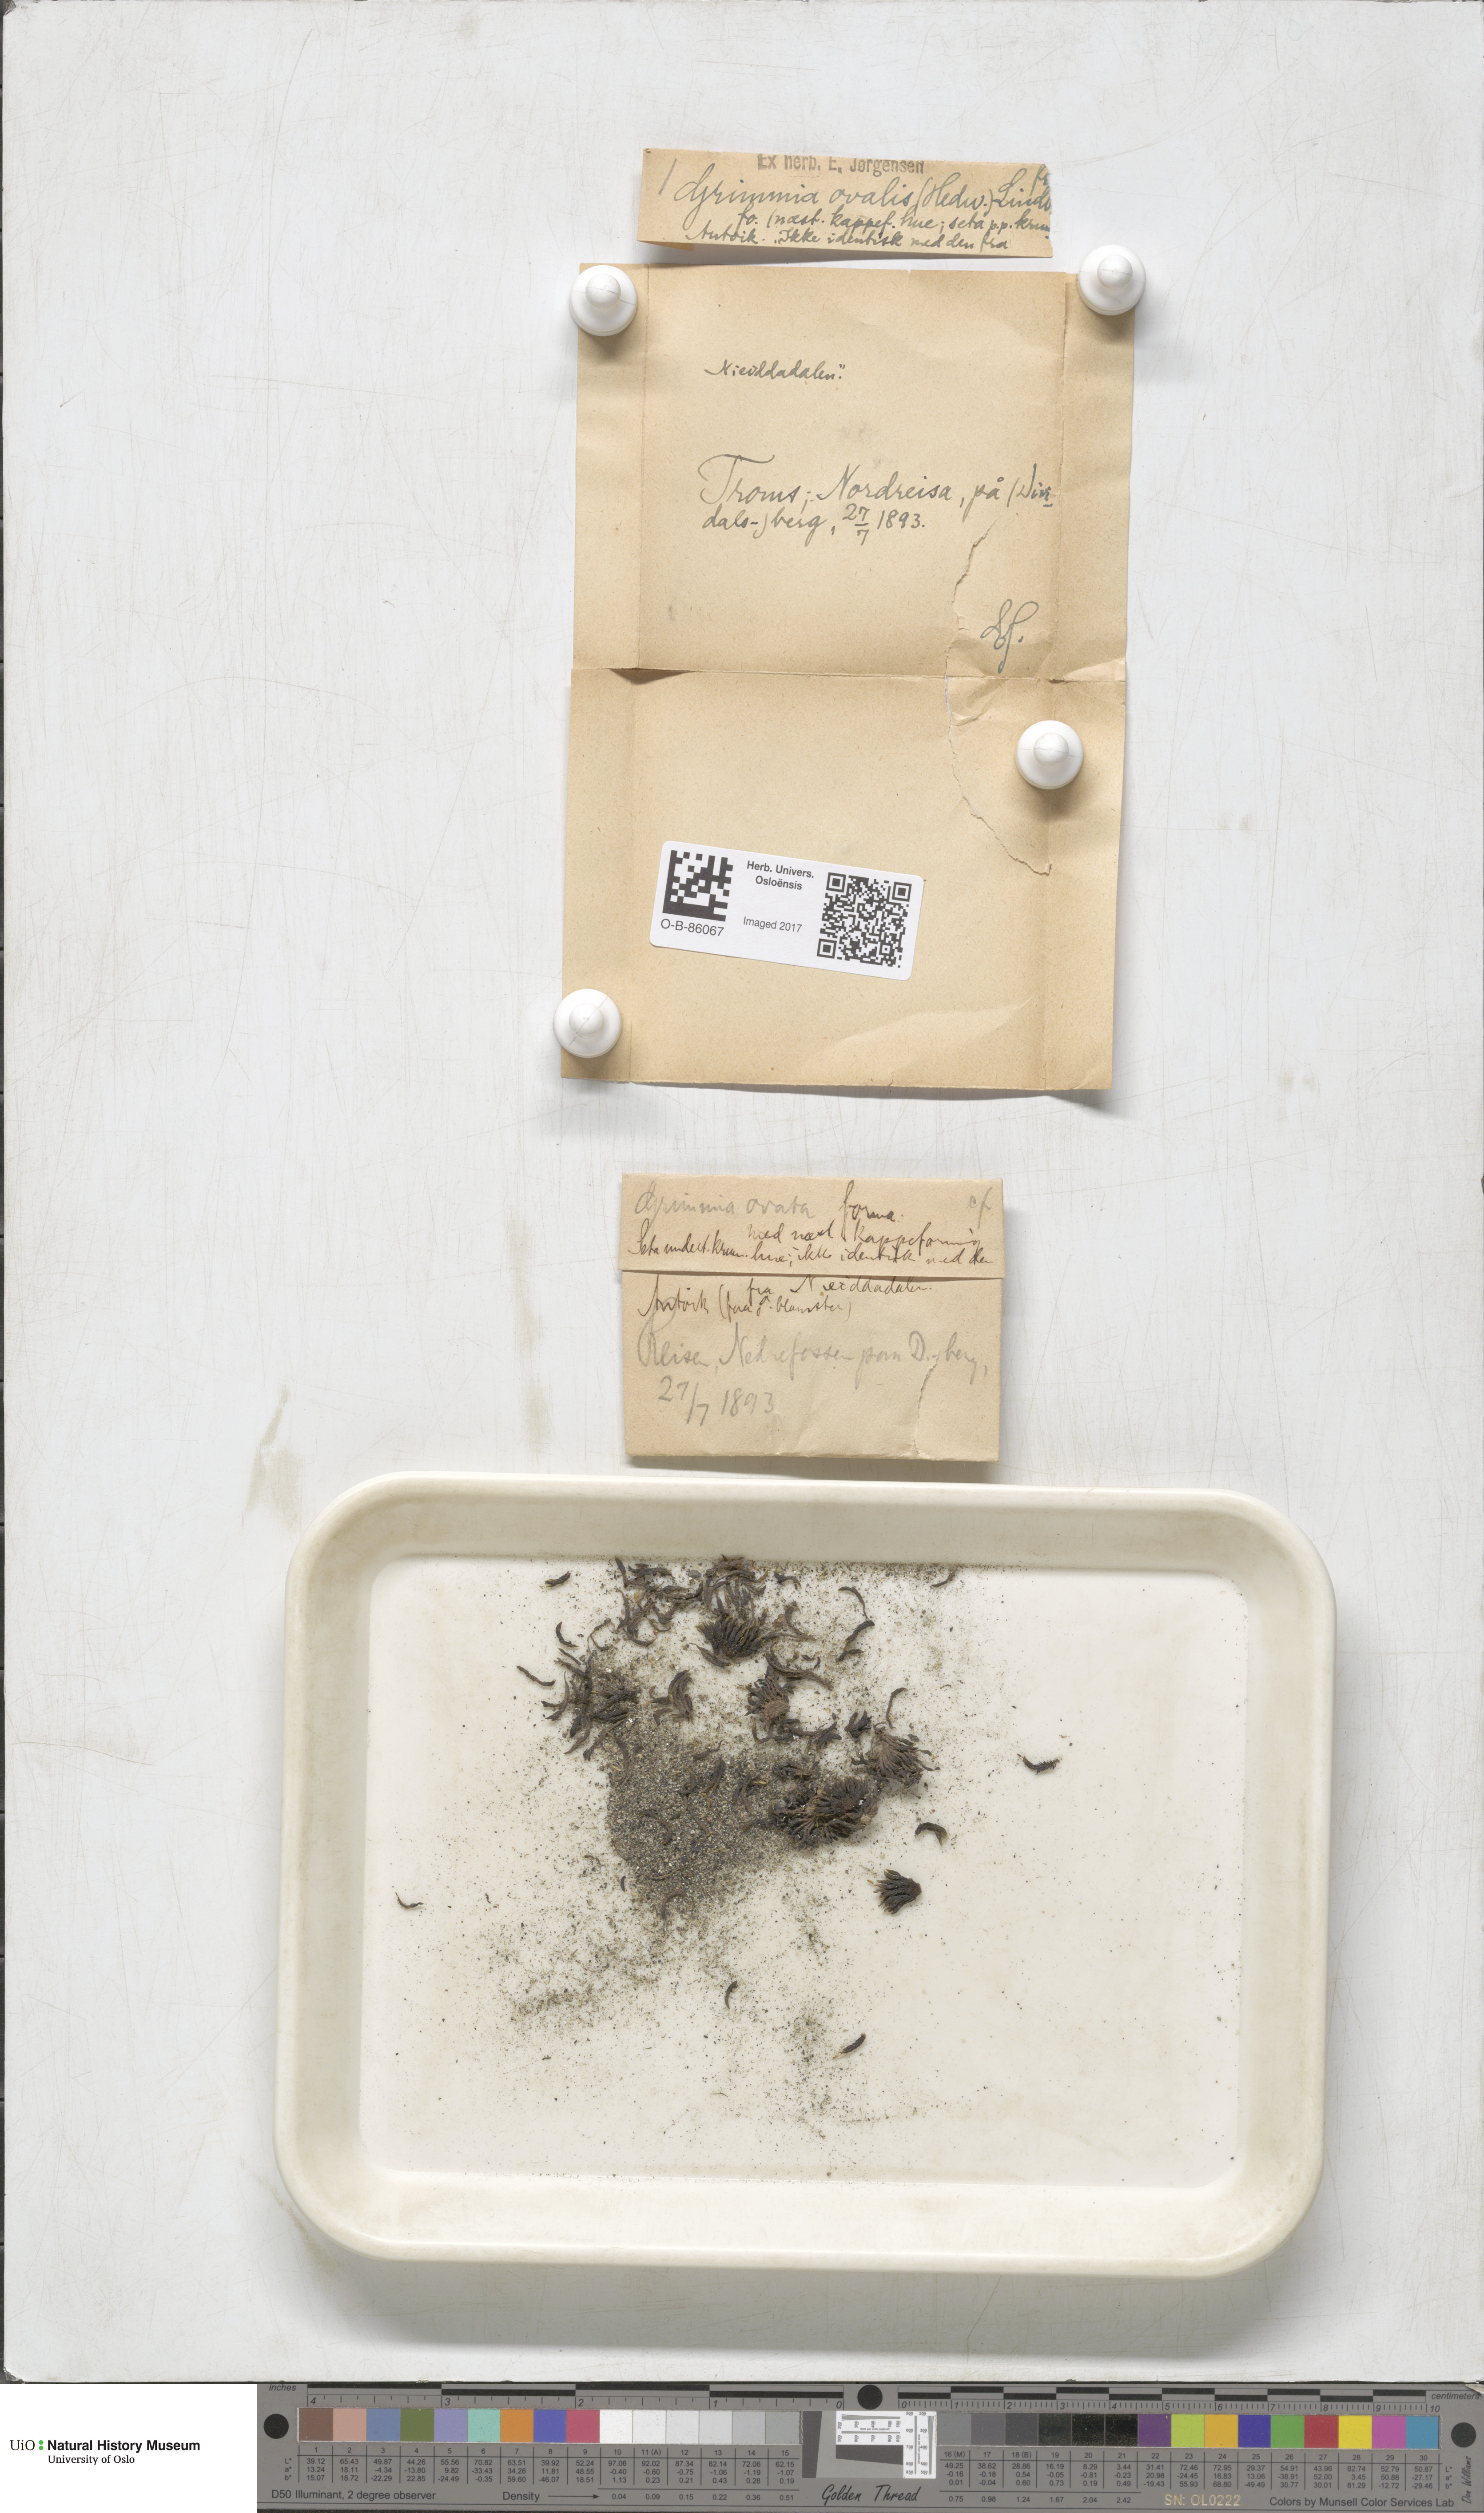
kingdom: Plantae
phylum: Bryophyta
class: Bryopsida
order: Grimmiales
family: Grimmiaceae
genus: Grimmia
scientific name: Grimmia ovalis
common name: Oval grimmia
